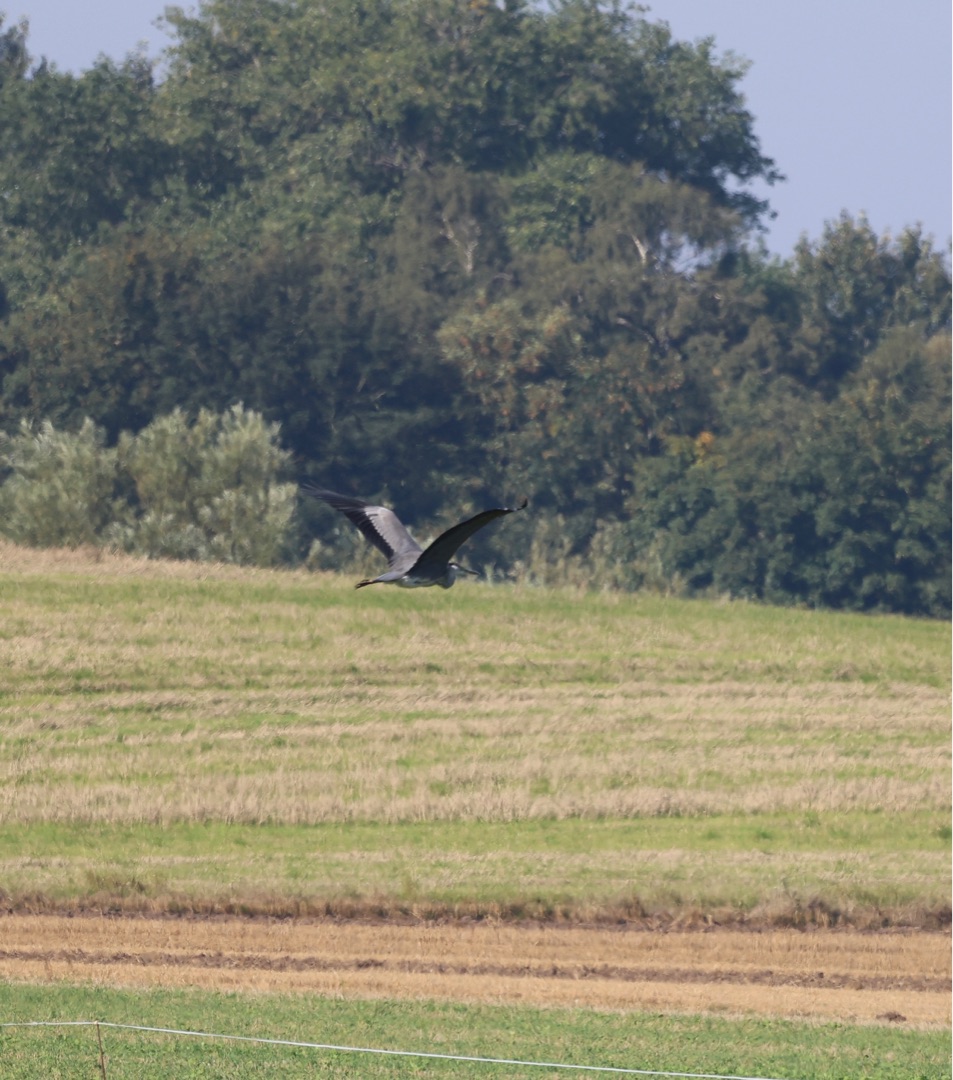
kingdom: Animalia
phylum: Chordata
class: Aves
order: Pelecaniformes
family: Ardeidae
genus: Ardea
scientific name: Ardea cinerea
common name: Fiskehejre
